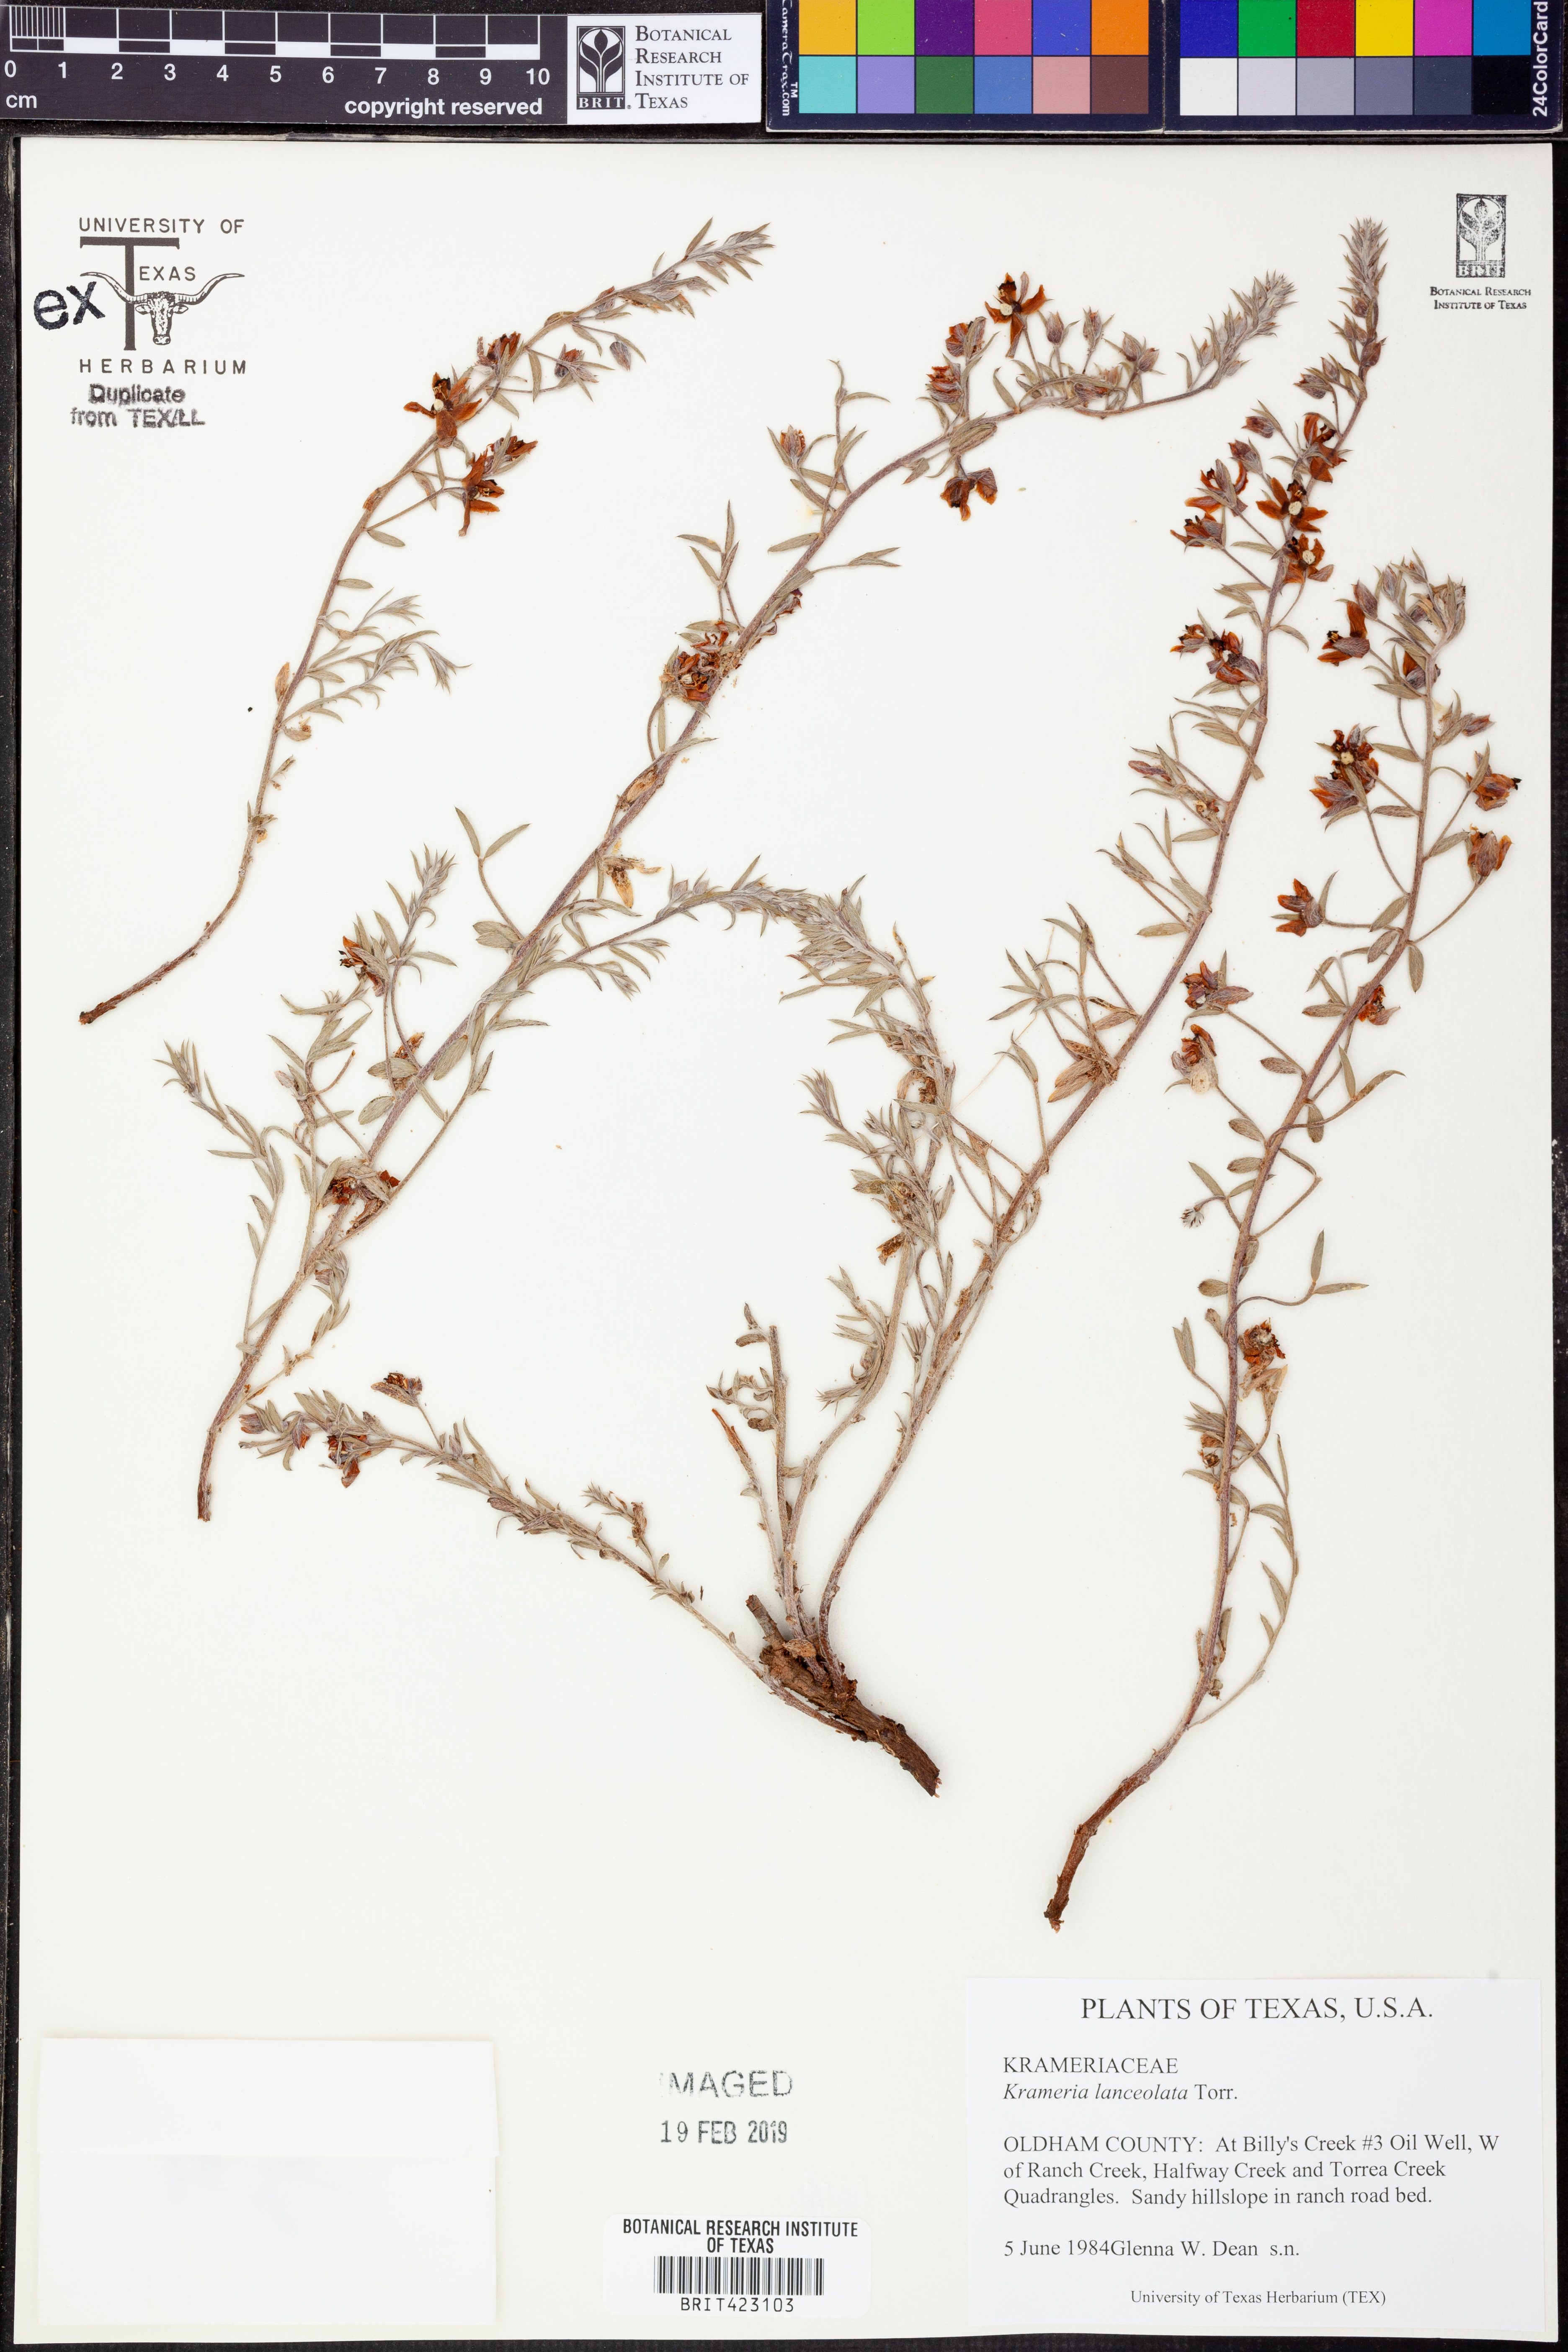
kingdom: Plantae
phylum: Tracheophyta
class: Magnoliopsida
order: Zygophyllales
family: Krameriaceae
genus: Krameria
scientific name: Krameria lanceolata
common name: Ratany
